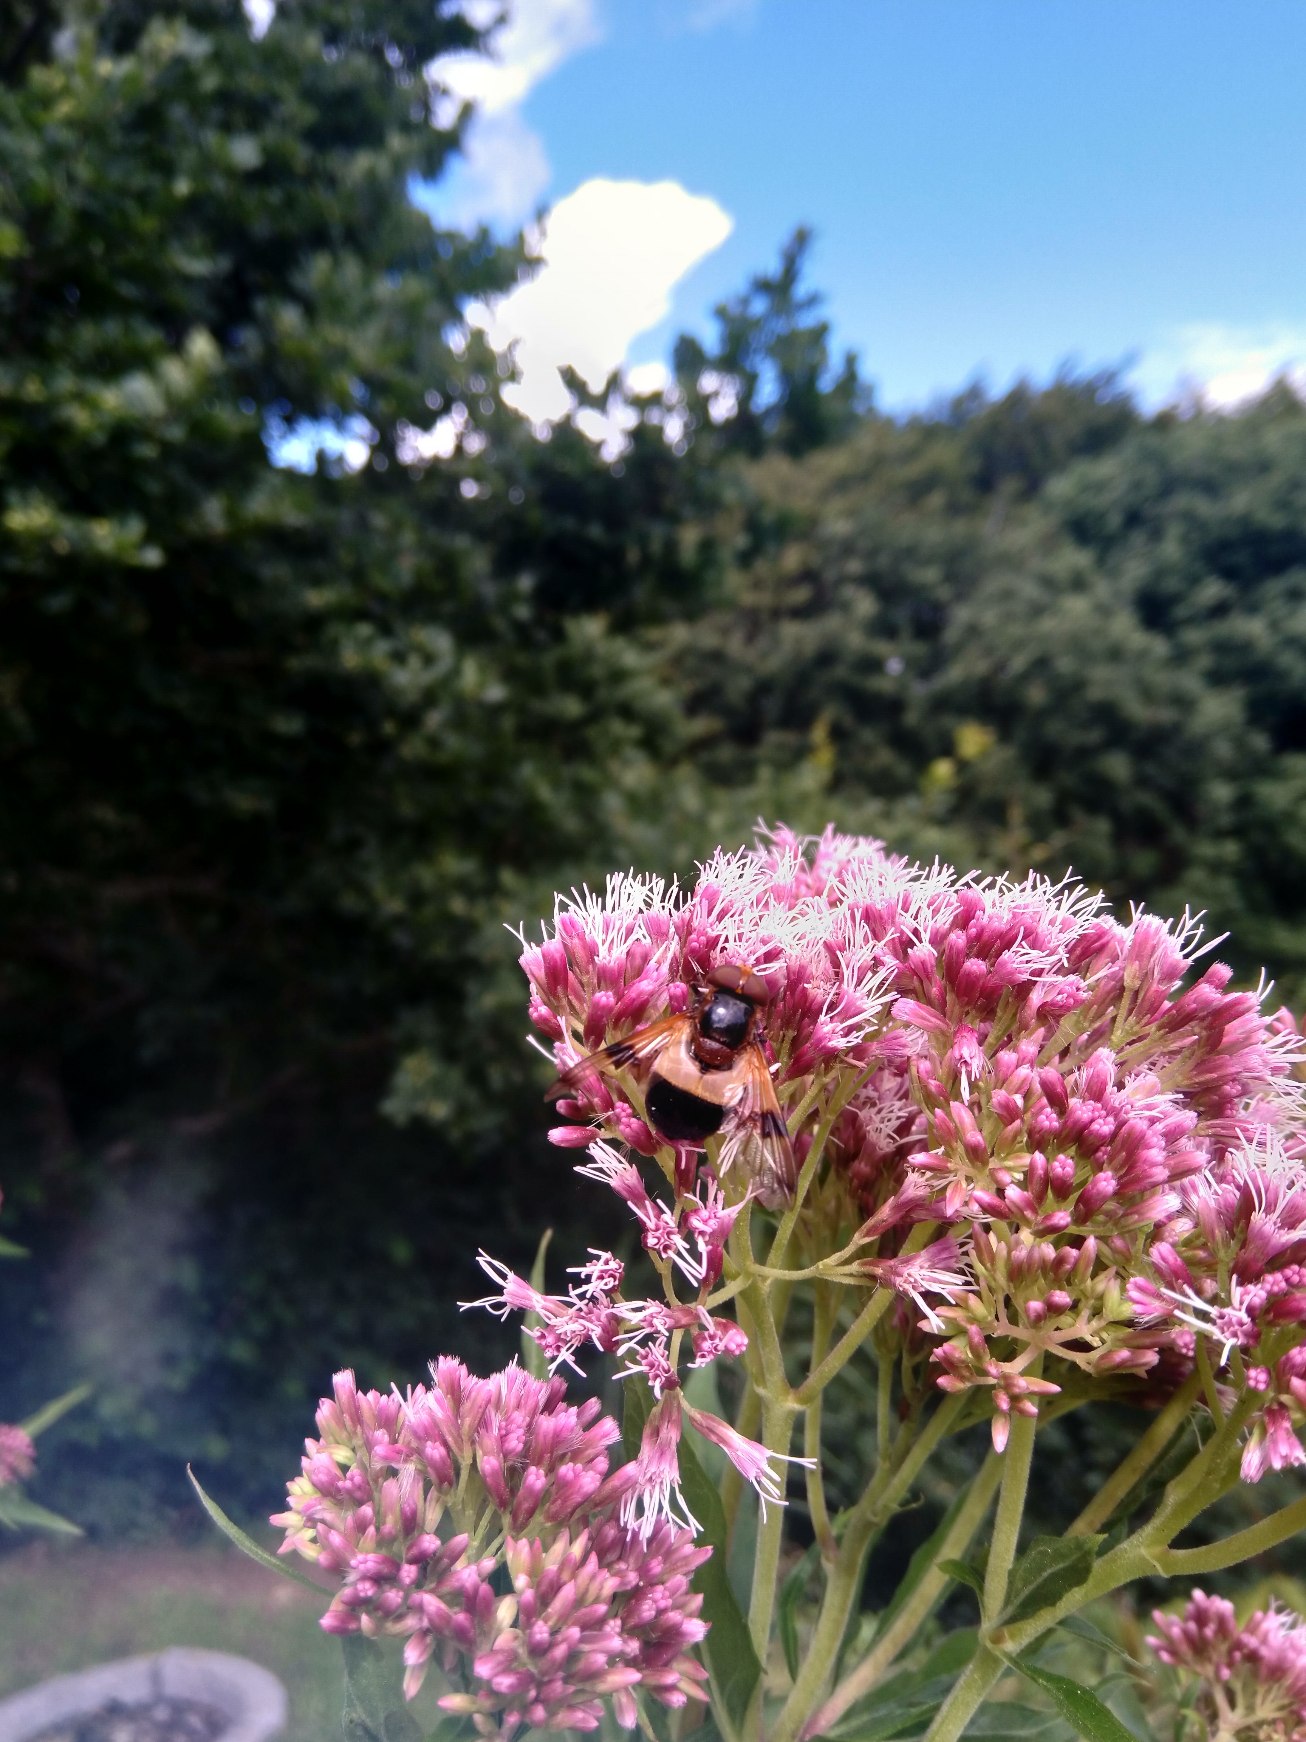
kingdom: Animalia
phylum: Arthropoda
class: Insecta
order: Diptera
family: Syrphidae
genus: Volucella
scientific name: Volucella pellucens
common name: Hvidbåndet humlesvirreflue
